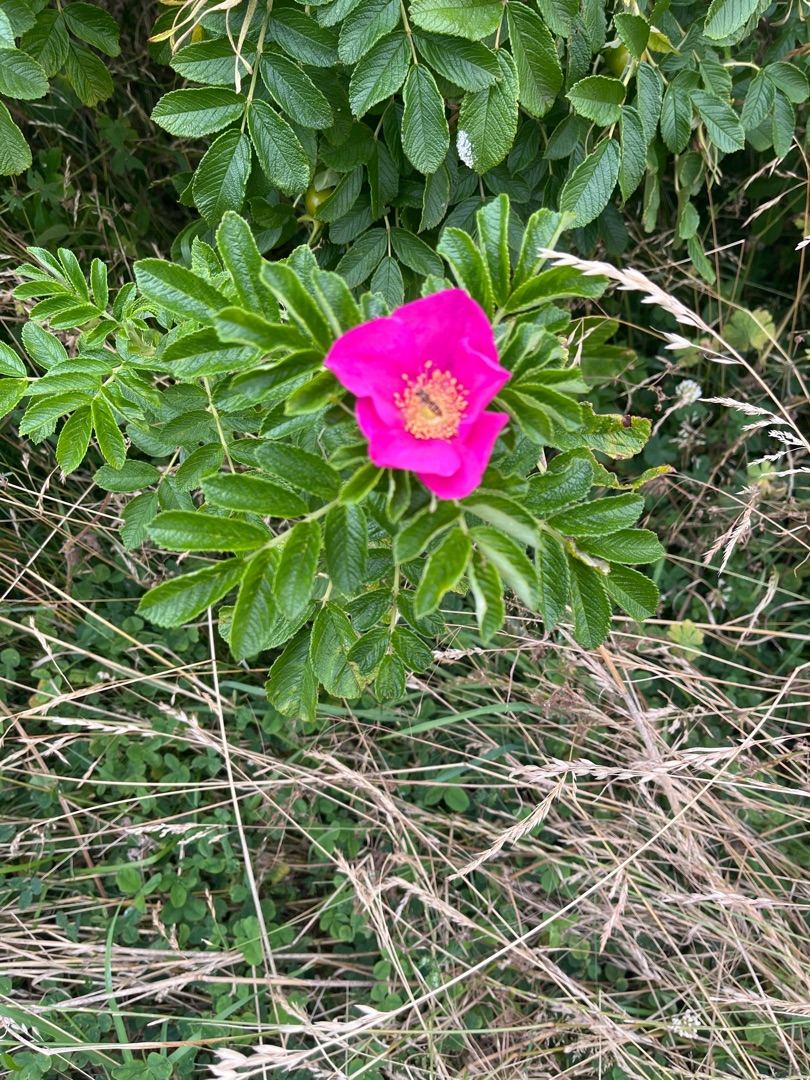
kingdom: Plantae
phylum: Tracheophyta
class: Magnoliopsida
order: Rosales
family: Rosaceae
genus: Rosa
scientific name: Rosa rugosa
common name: Rynket rose
